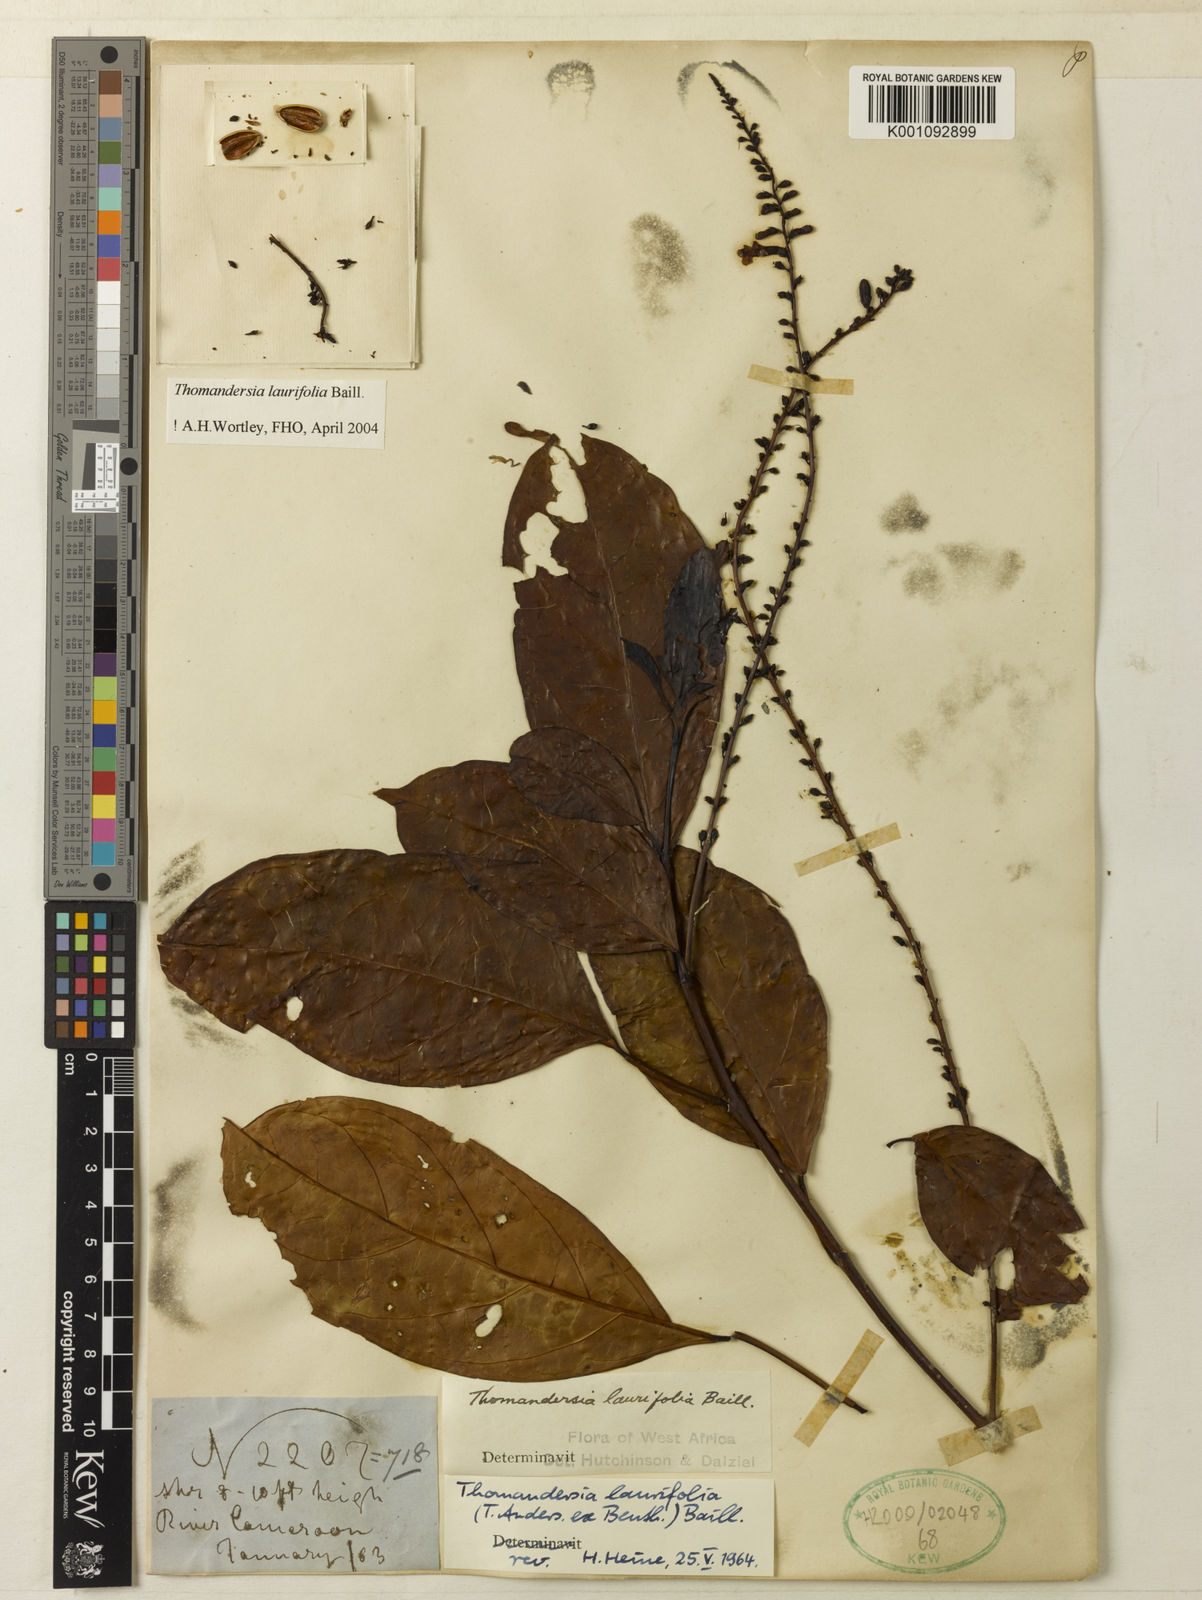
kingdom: Plantae
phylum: Tracheophyta
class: Magnoliopsida
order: Lamiales
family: Thomandersiaceae
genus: Thomandersia
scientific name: Thomandersia laurifolia
